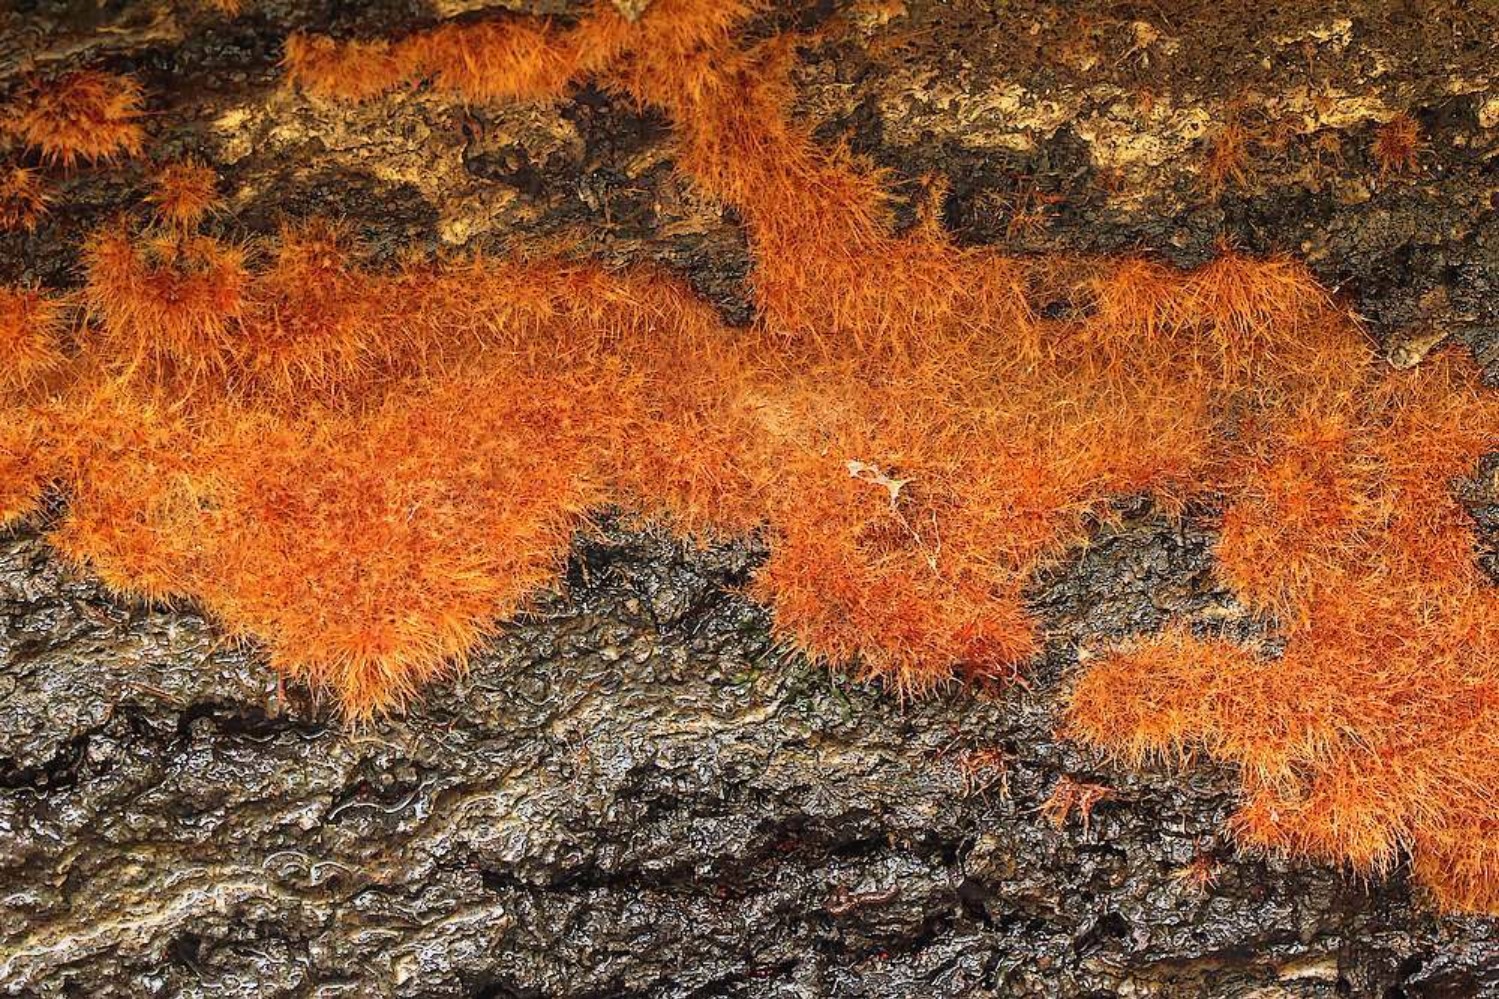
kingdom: Fungi
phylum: Basidiomycota
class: Agaricomycetes
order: Agaricales
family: Psathyrellaceae
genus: Coprinellus
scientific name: Coprinellus
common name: blækhat
